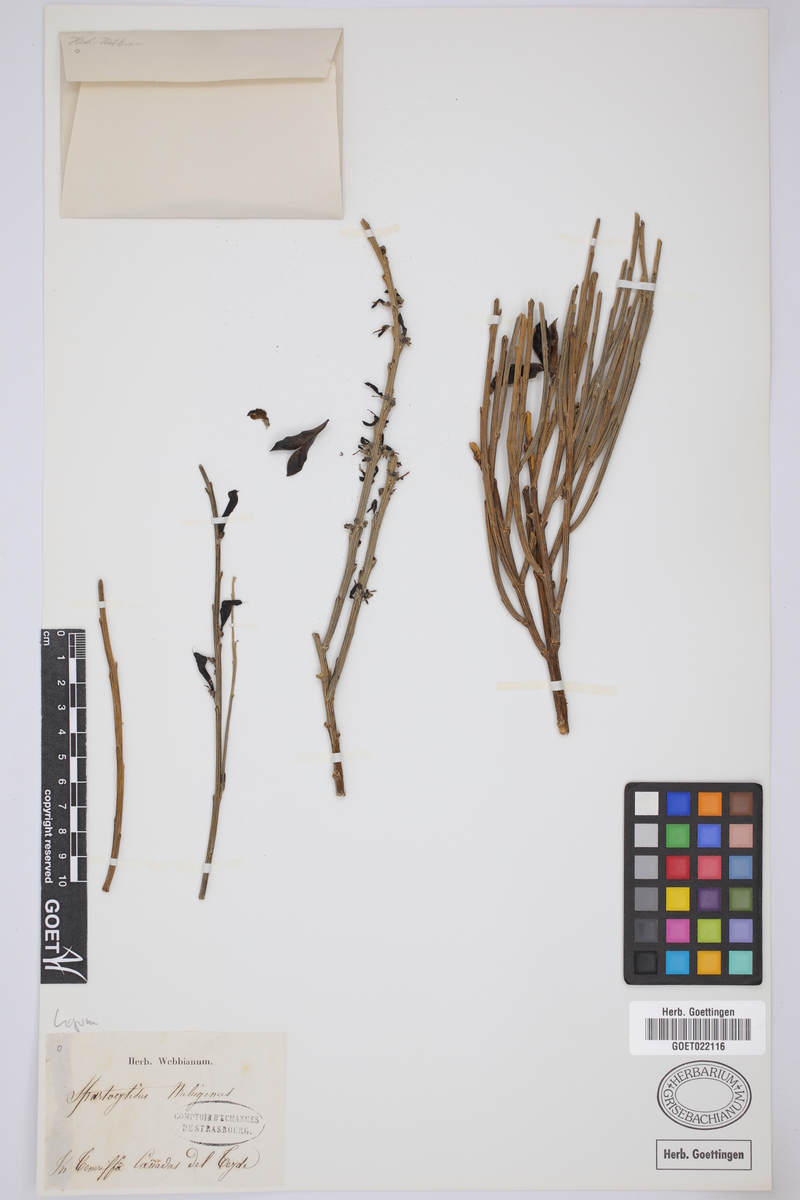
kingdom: Plantae
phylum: Tracheophyta
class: Magnoliopsida
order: Fabales
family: Fabaceae
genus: Cytisus
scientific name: Cytisus supranubius
